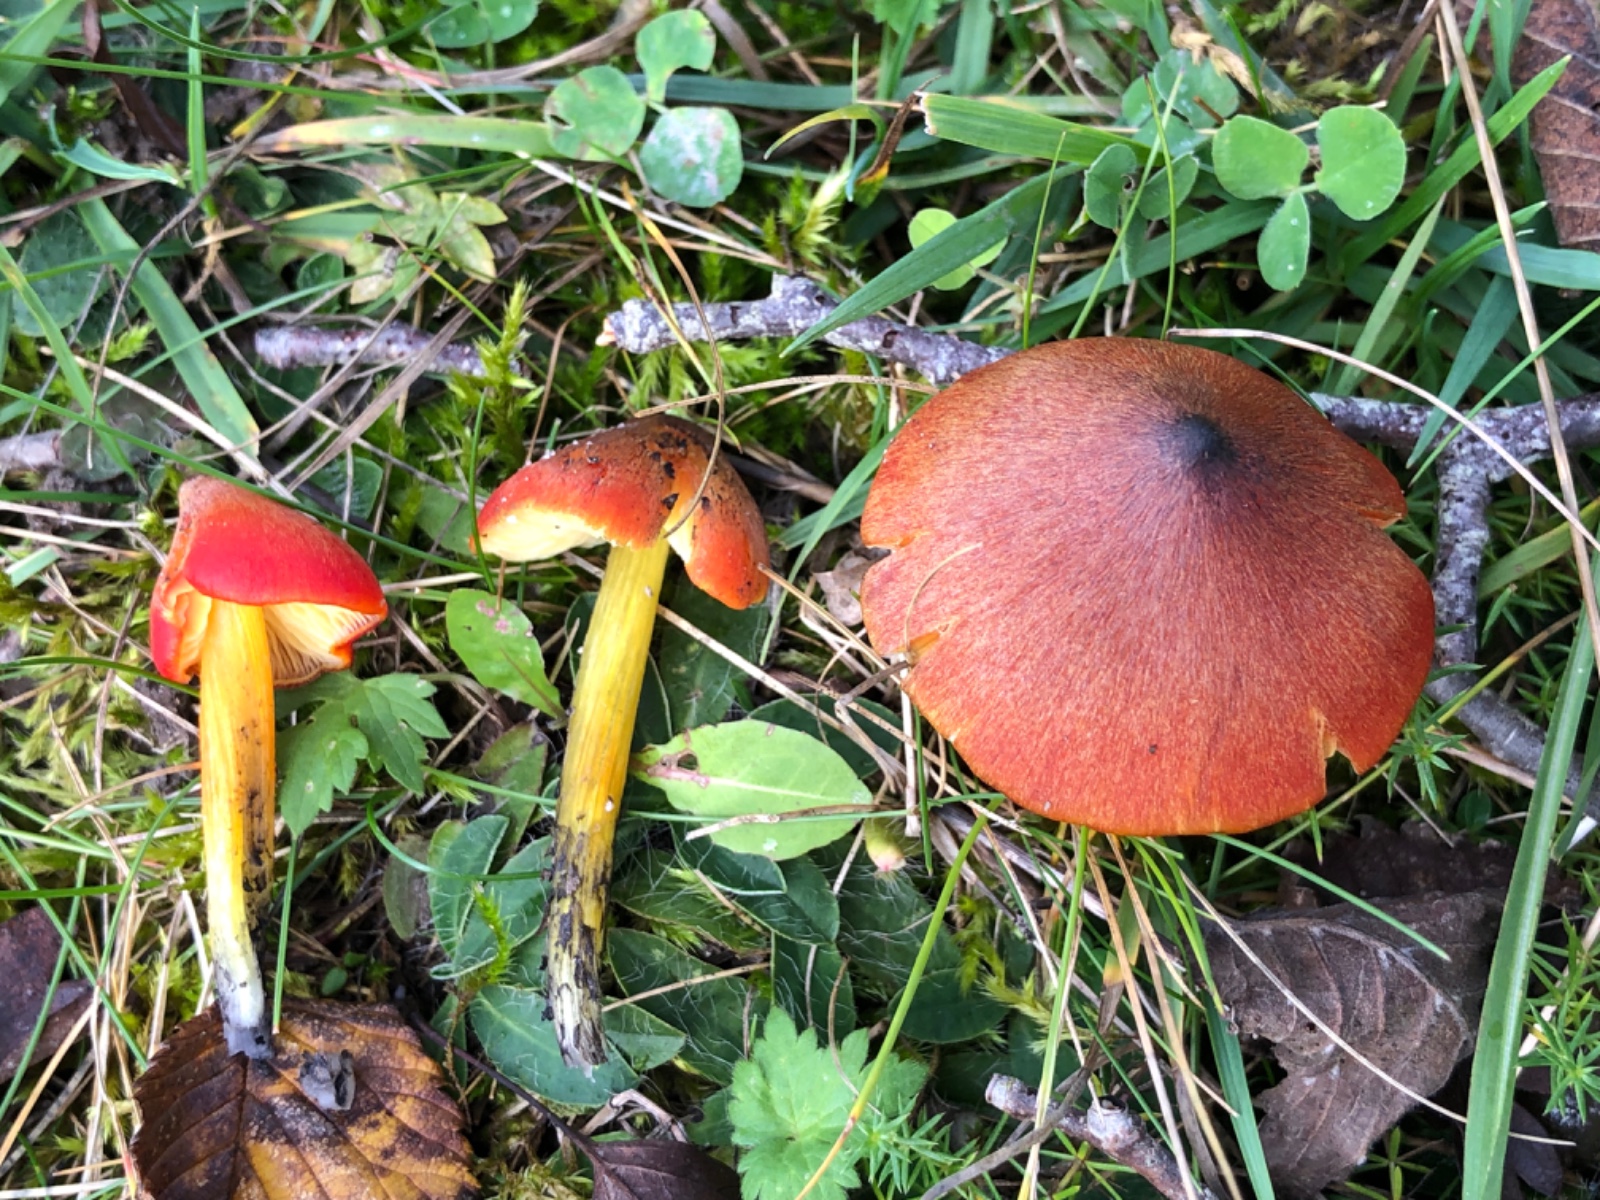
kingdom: Fungi
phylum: Basidiomycota
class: Agaricomycetes
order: Agaricales
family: Hygrophoraceae
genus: Hygrocybe
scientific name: Hygrocybe conica
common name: kegle-vokshat
